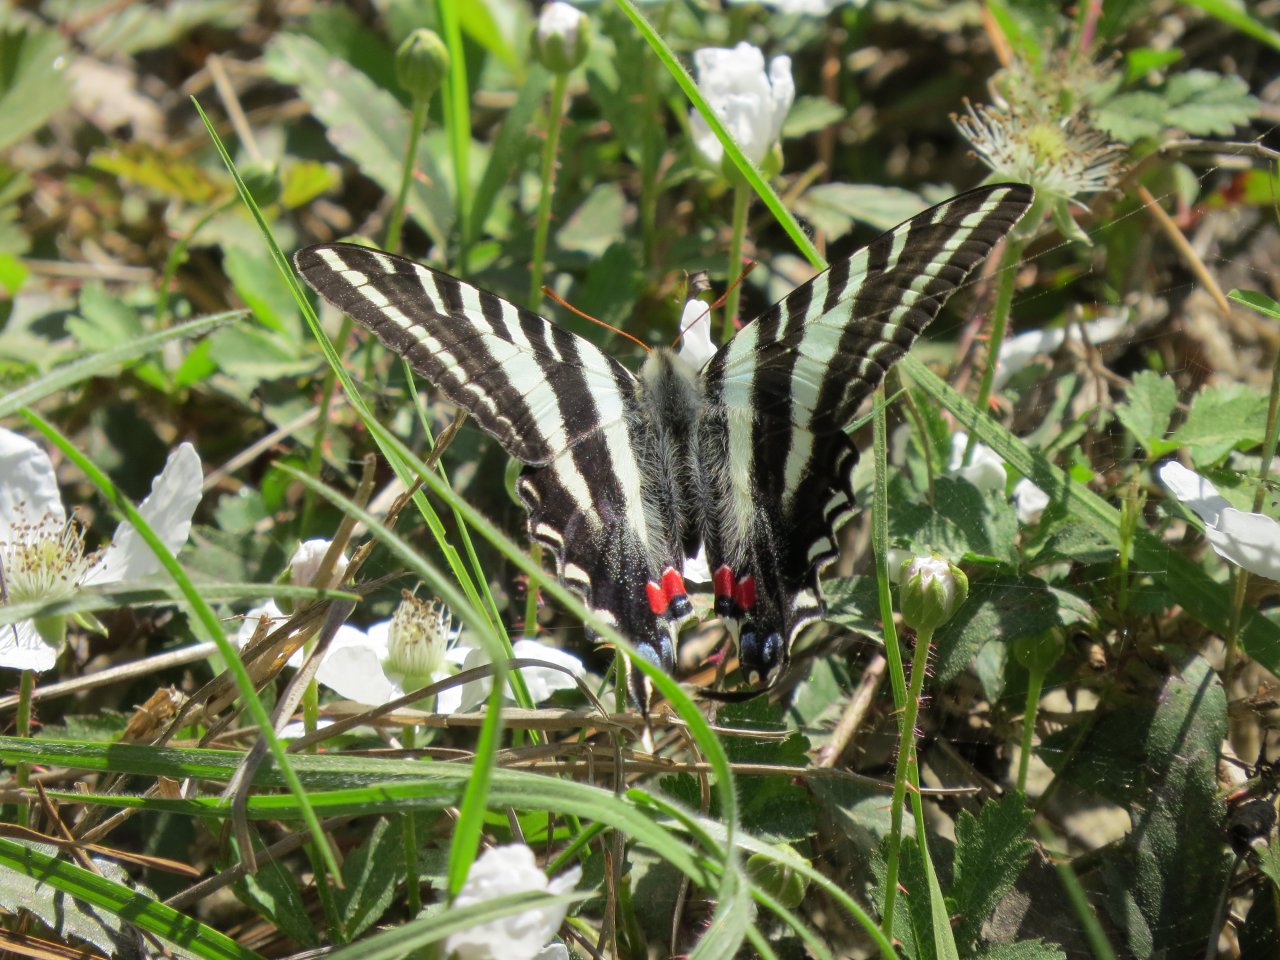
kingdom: Animalia
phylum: Arthropoda
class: Insecta
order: Lepidoptera
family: Papilionidae
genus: Protographium
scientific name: Protographium marcellus
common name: Zebra Swallowtail
